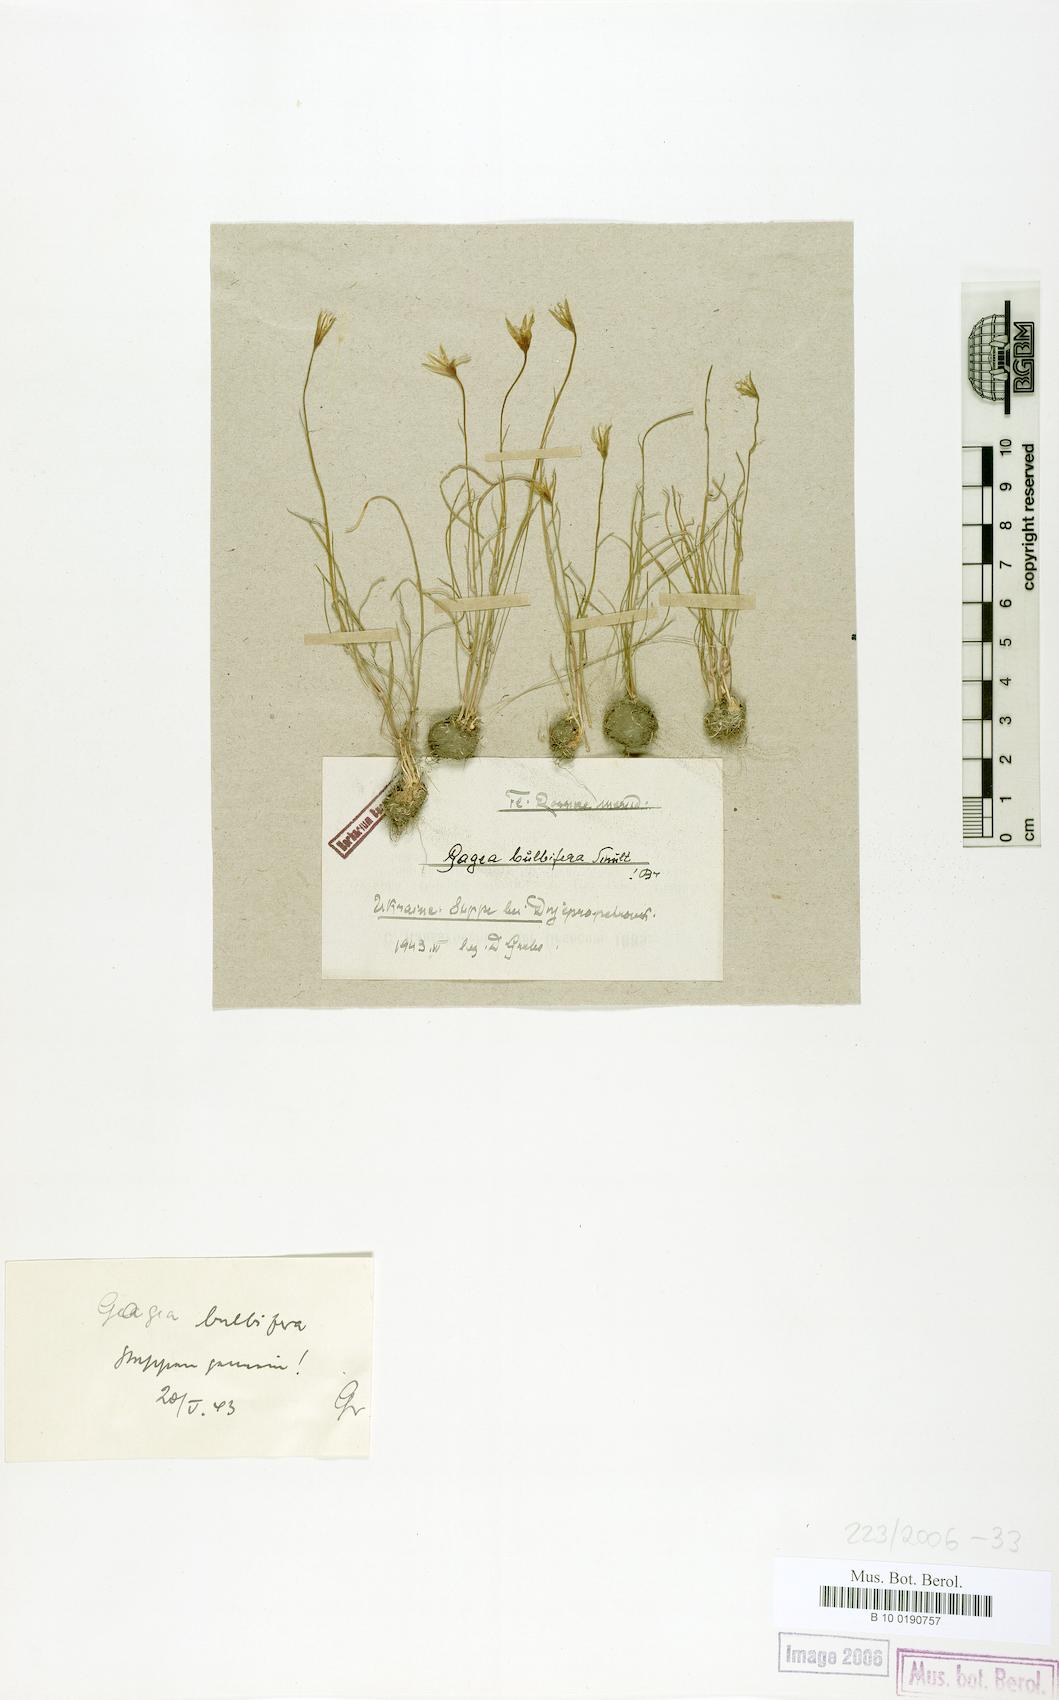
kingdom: Plantae
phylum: Tracheophyta
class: Liliopsida
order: Liliales
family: Liliaceae
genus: Gagea
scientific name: Gagea bulbifera
